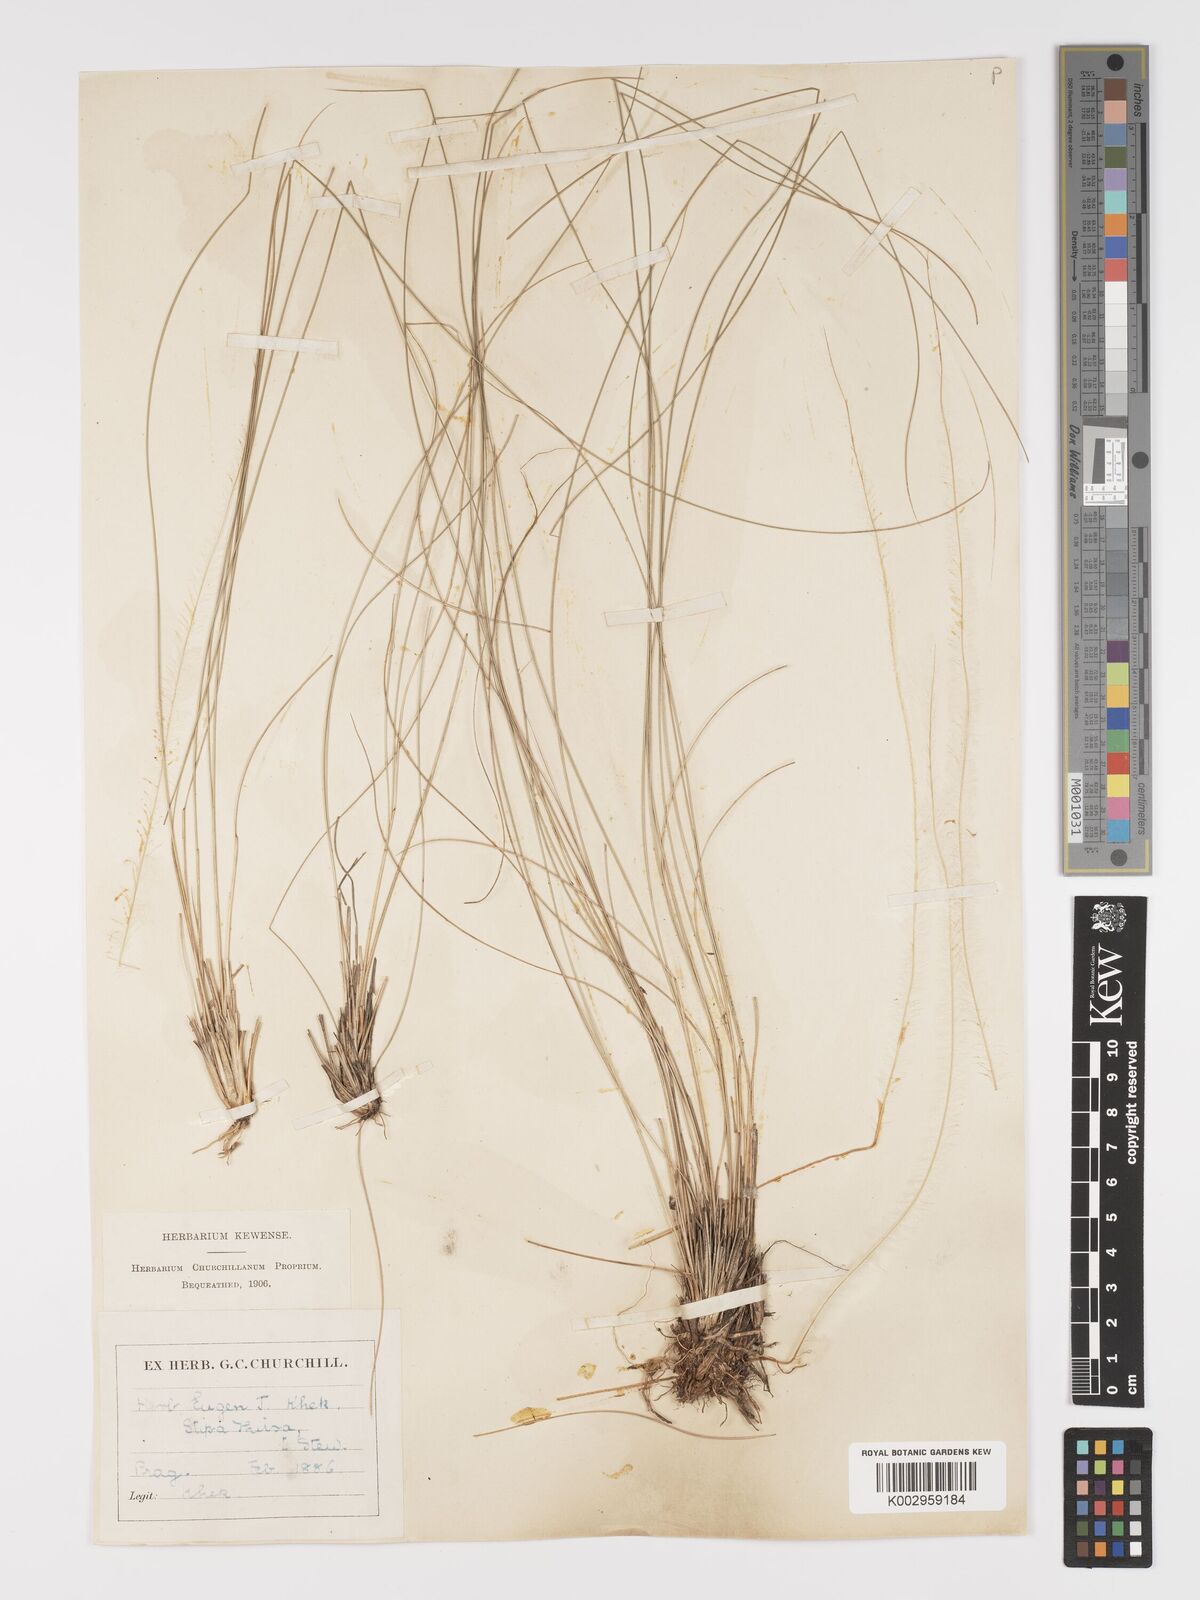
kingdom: Plantae
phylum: Tracheophyta
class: Liliopsida
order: Poales
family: Poaceae
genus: Stipa
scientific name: Stipa pennata
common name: European feather grass
